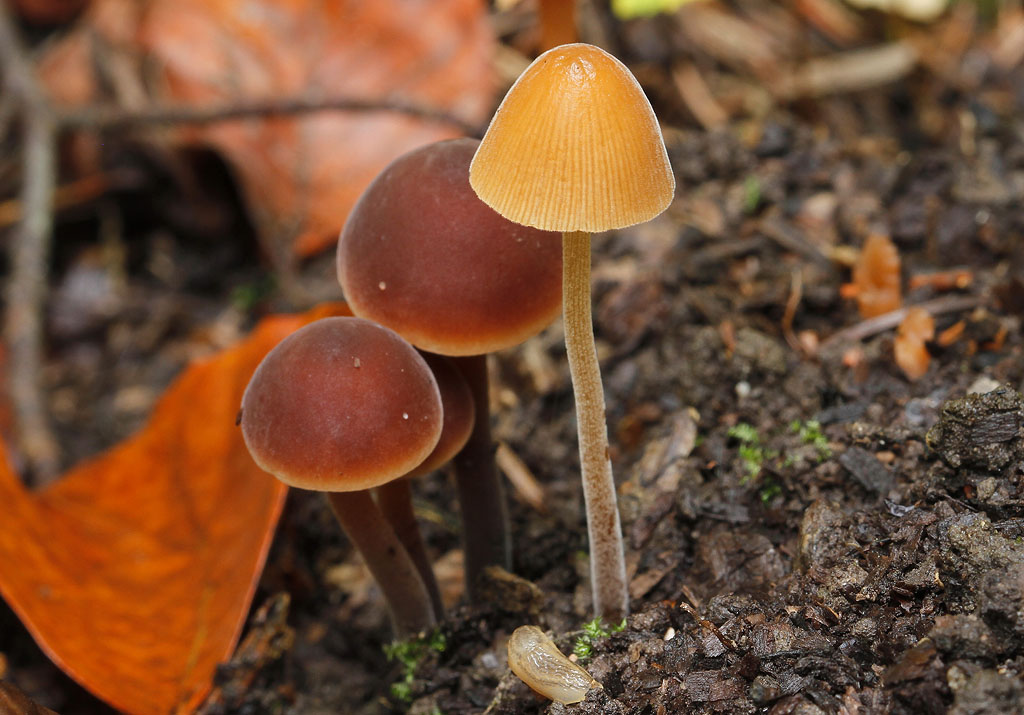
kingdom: Fungi
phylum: Basidiomycota
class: Agaricomycetes
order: Agaricales
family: Bolbitiaceae
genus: Conocybe
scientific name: Conocybe subpubescens
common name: krat-keglehat
